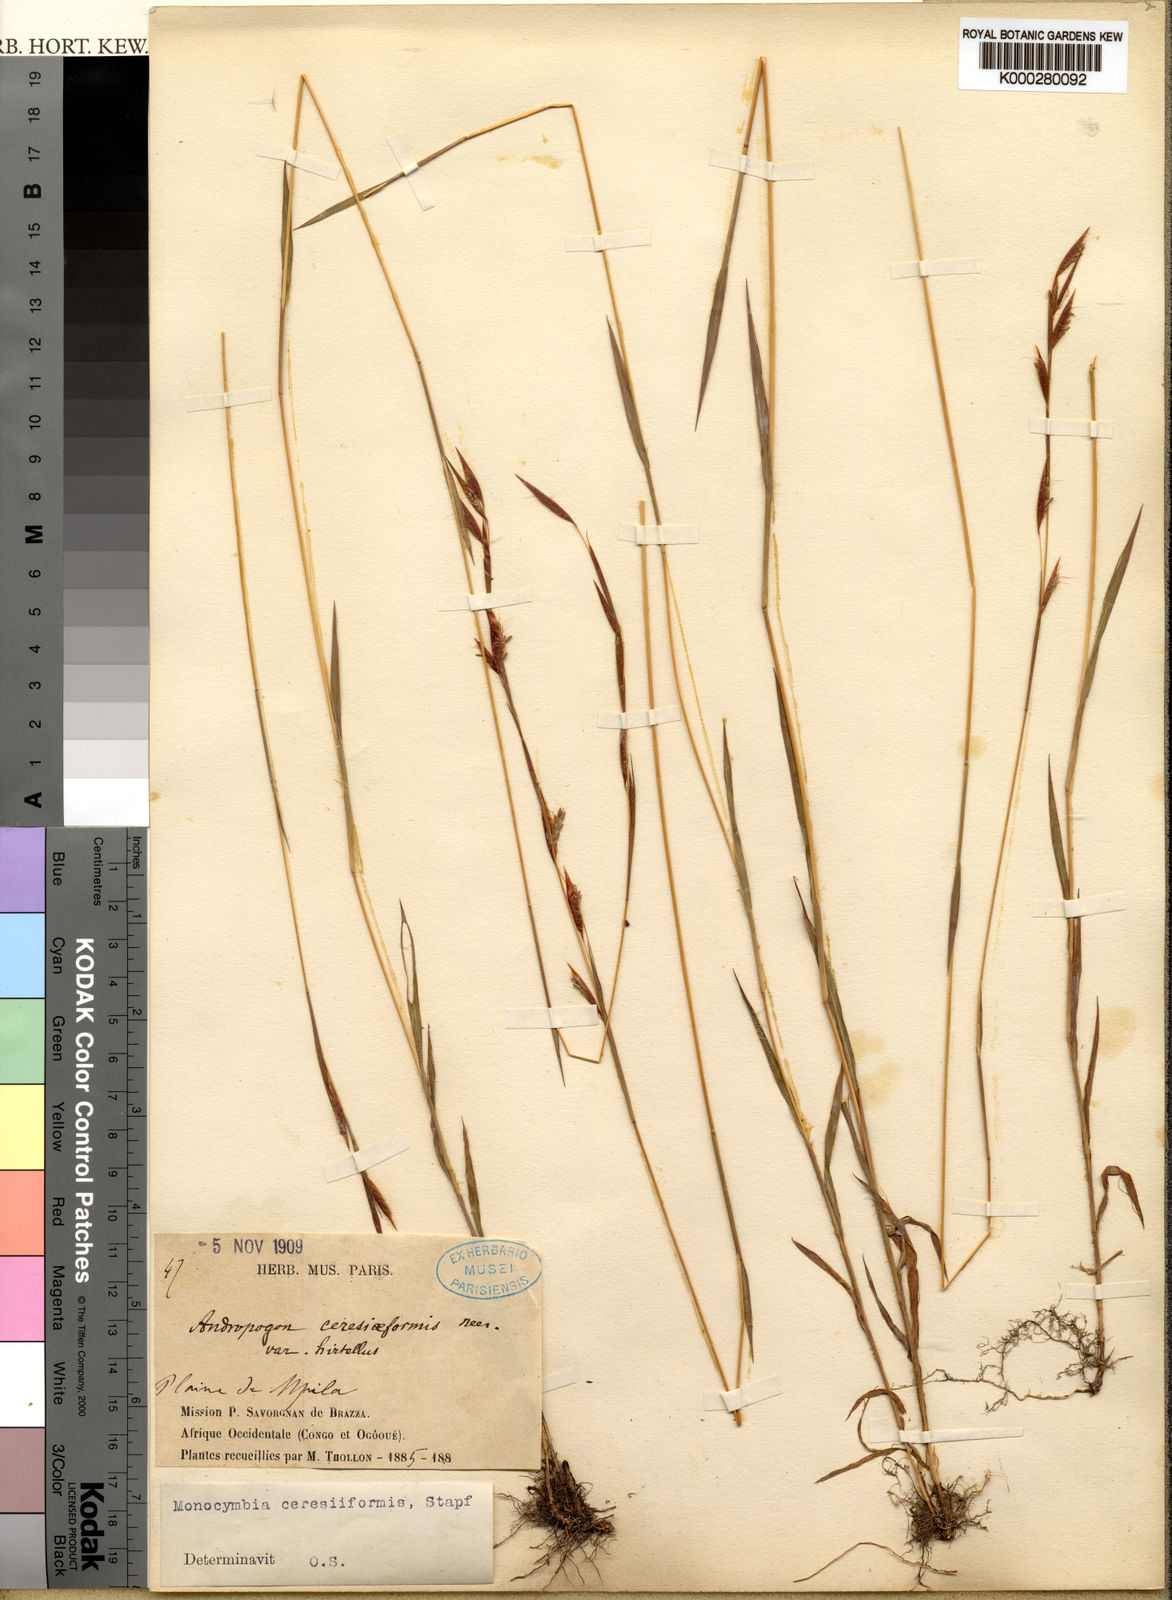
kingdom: Plantae
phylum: Tracheophyta
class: Liliopsida
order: Poales
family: Poaceae
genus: Monocymbium
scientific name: Monocymbium ceresiiforme
